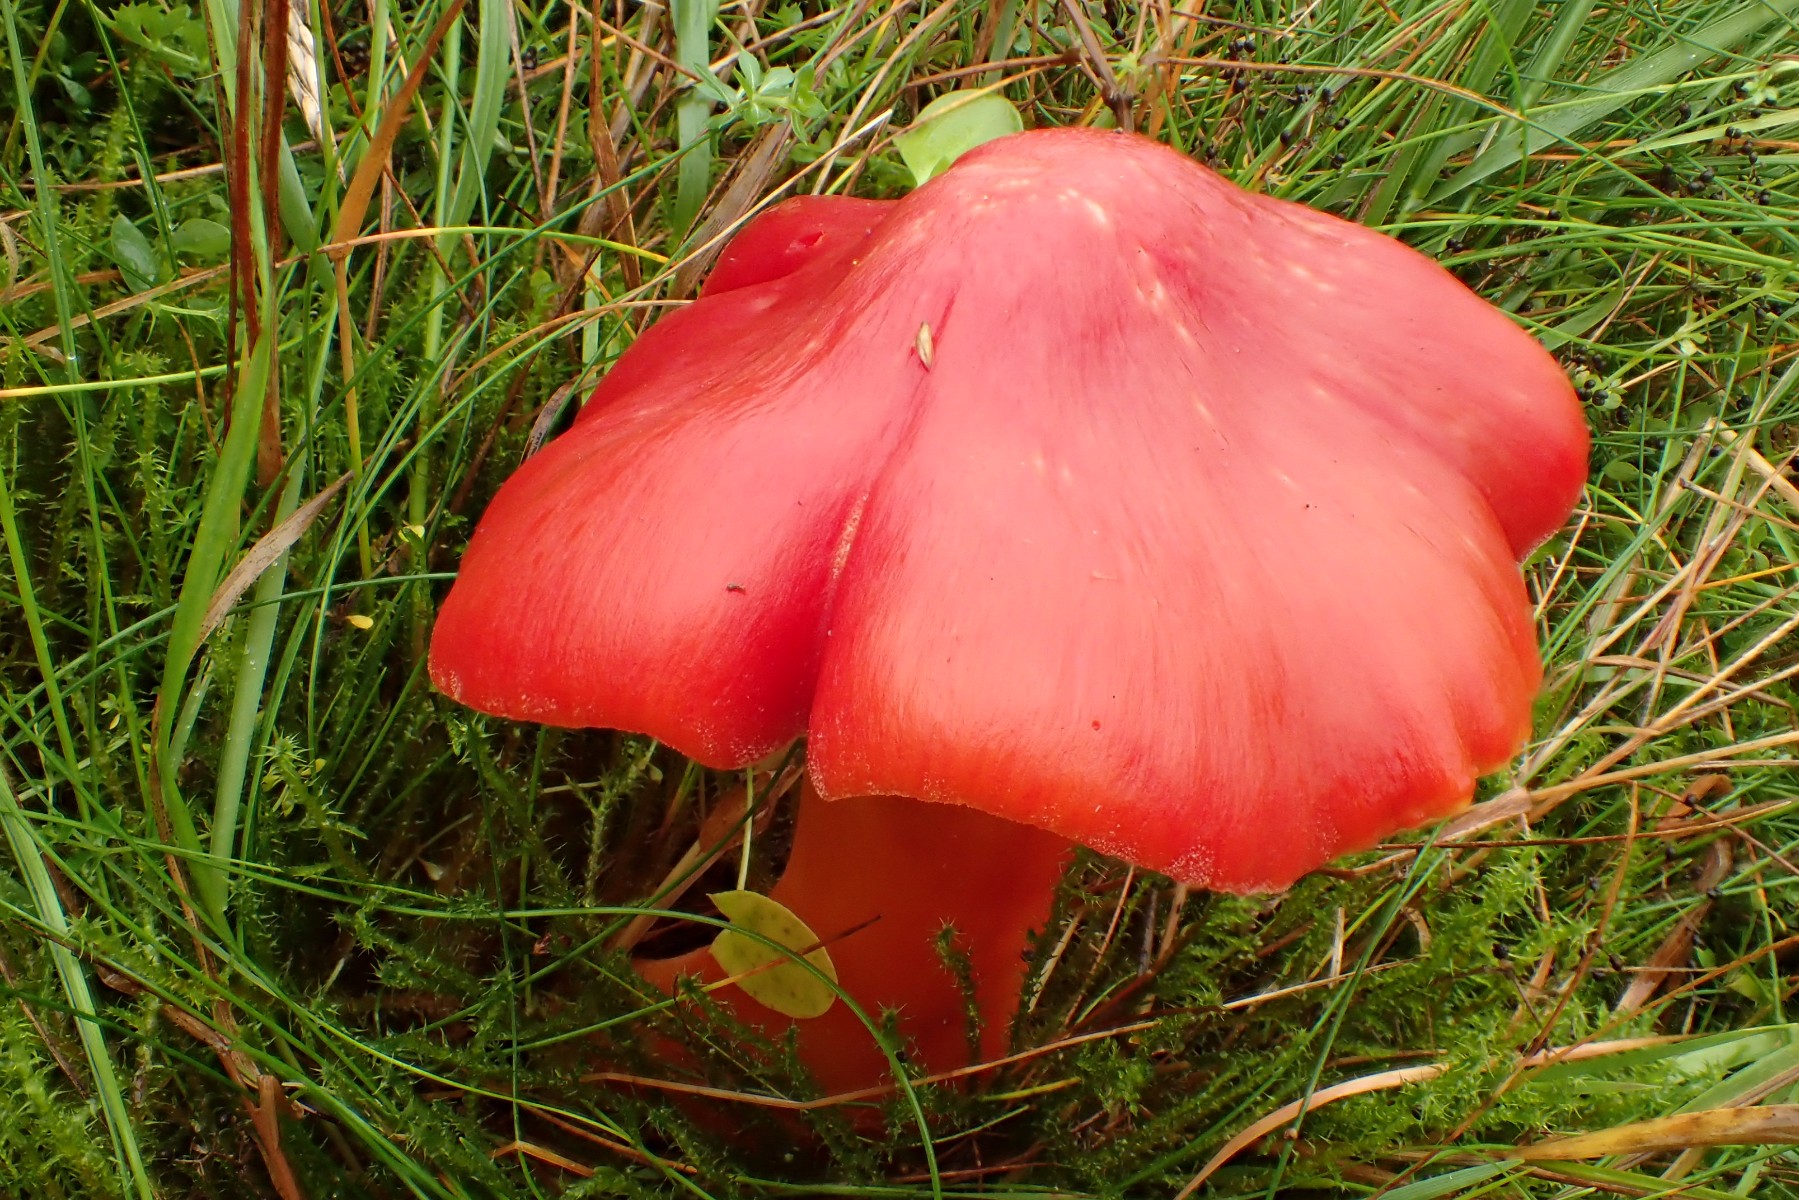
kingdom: Fungi
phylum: Basidiomycota
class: Agaricomycetes
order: Agaricales
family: Hygrophoraceae
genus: Hygrocybe
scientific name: Hygrocybe splendidissima
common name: knaldrød vokshat
